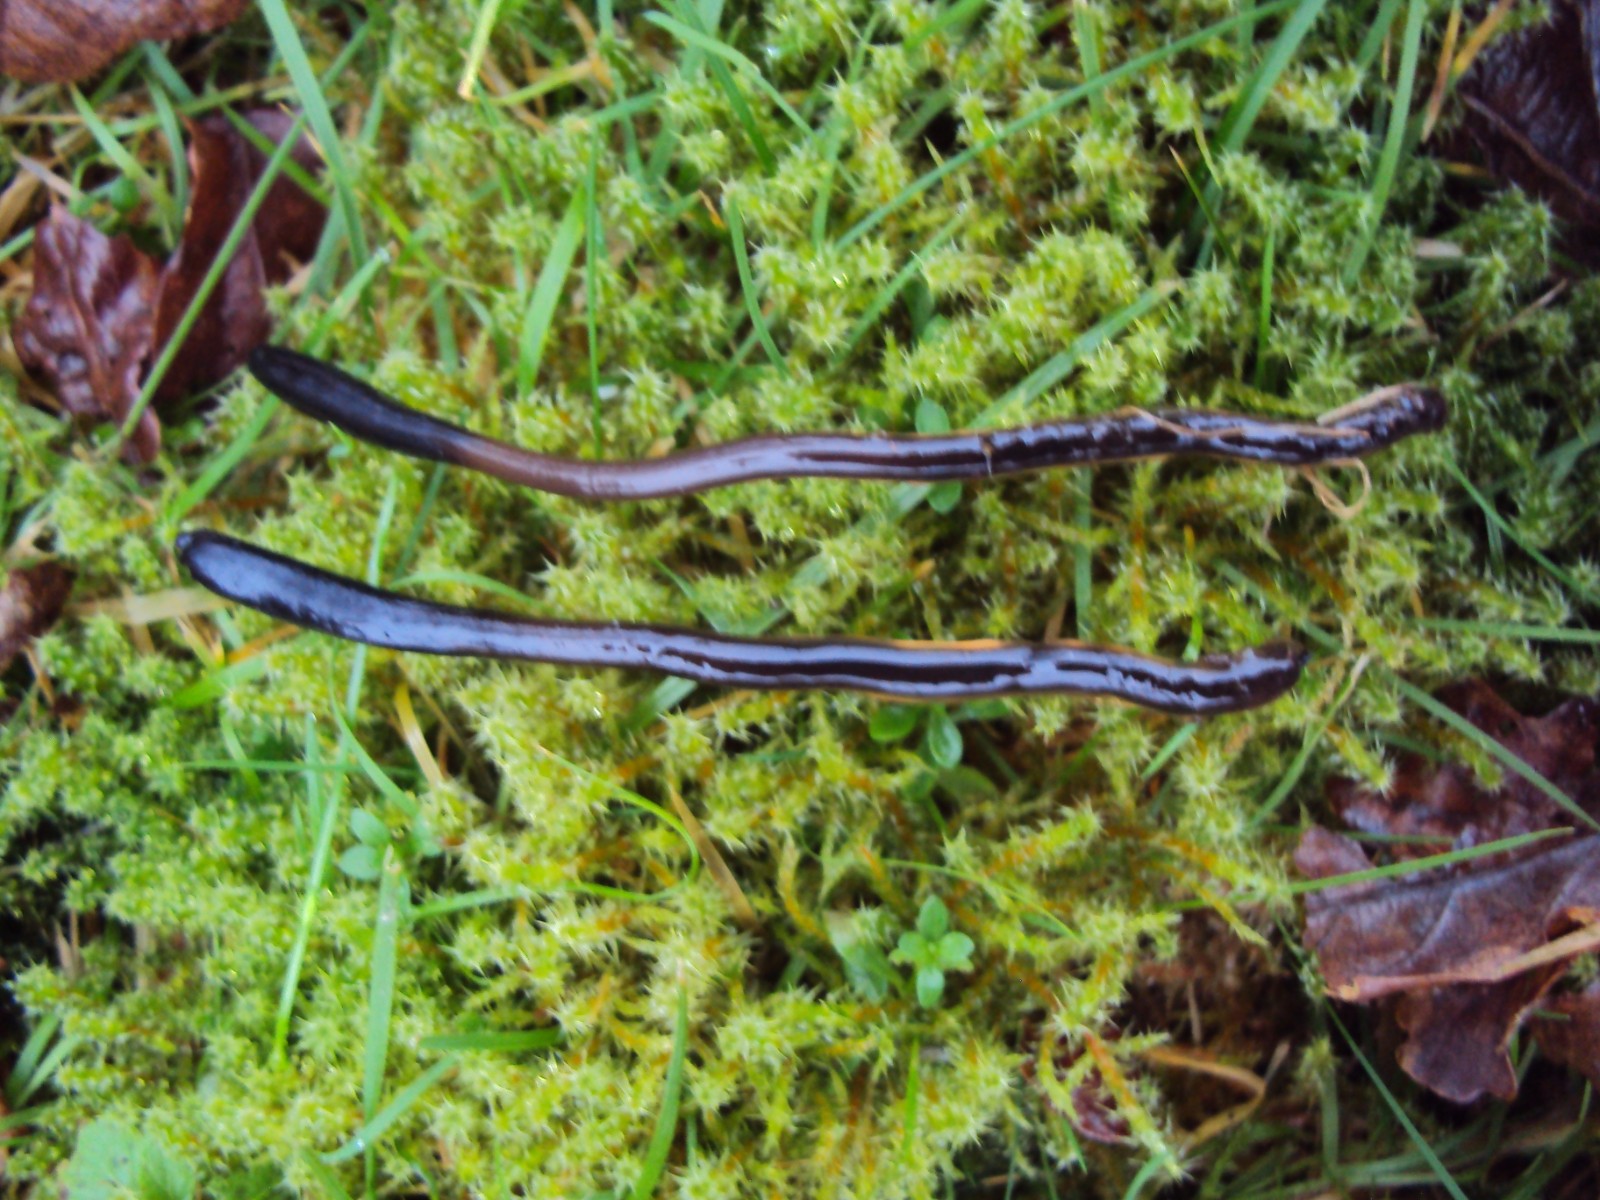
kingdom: Fungi
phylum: Ascomycota
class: Geoglossomycetes
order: Geoglossales
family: Geoglossaceae
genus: Glutinoglossum
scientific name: Glutinoglossum glutinosum
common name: slimet jordtunge
